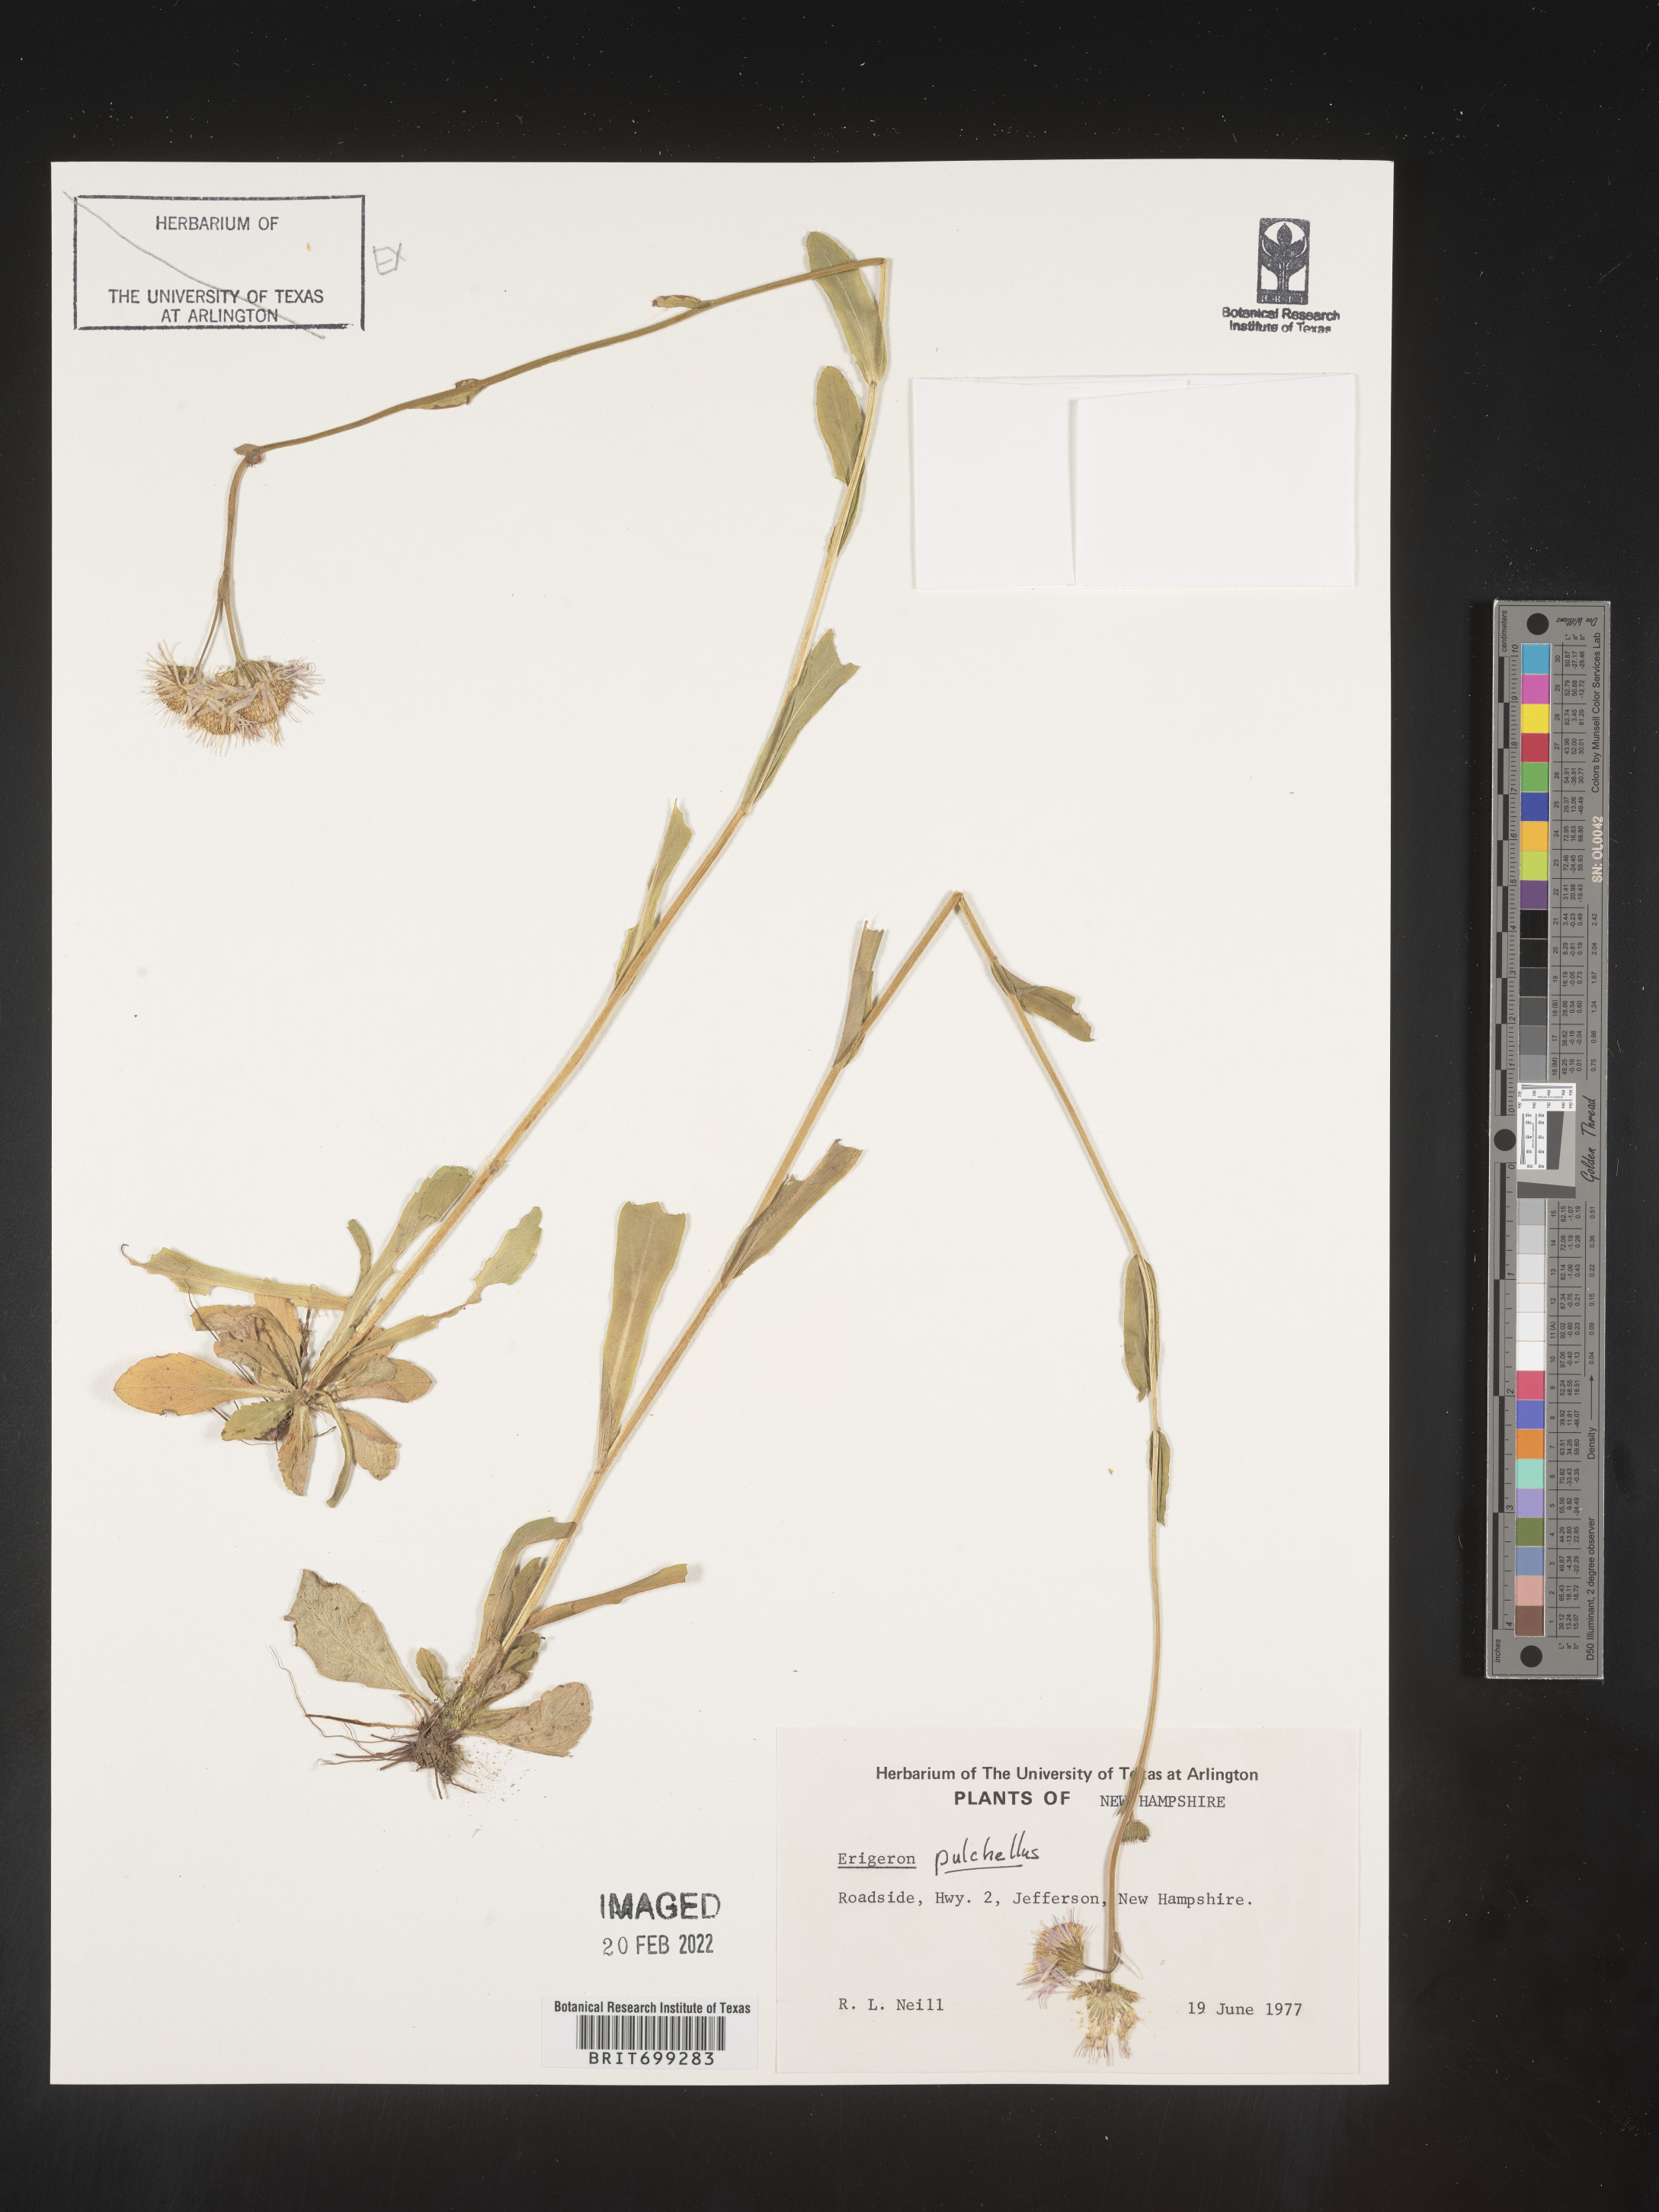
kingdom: Plantae
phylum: Tracheophyta
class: Magnoliopsida
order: Asterales
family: Asteraceae
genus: Erigeron
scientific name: Erigeron pulchellus
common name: Hairy fleabane
